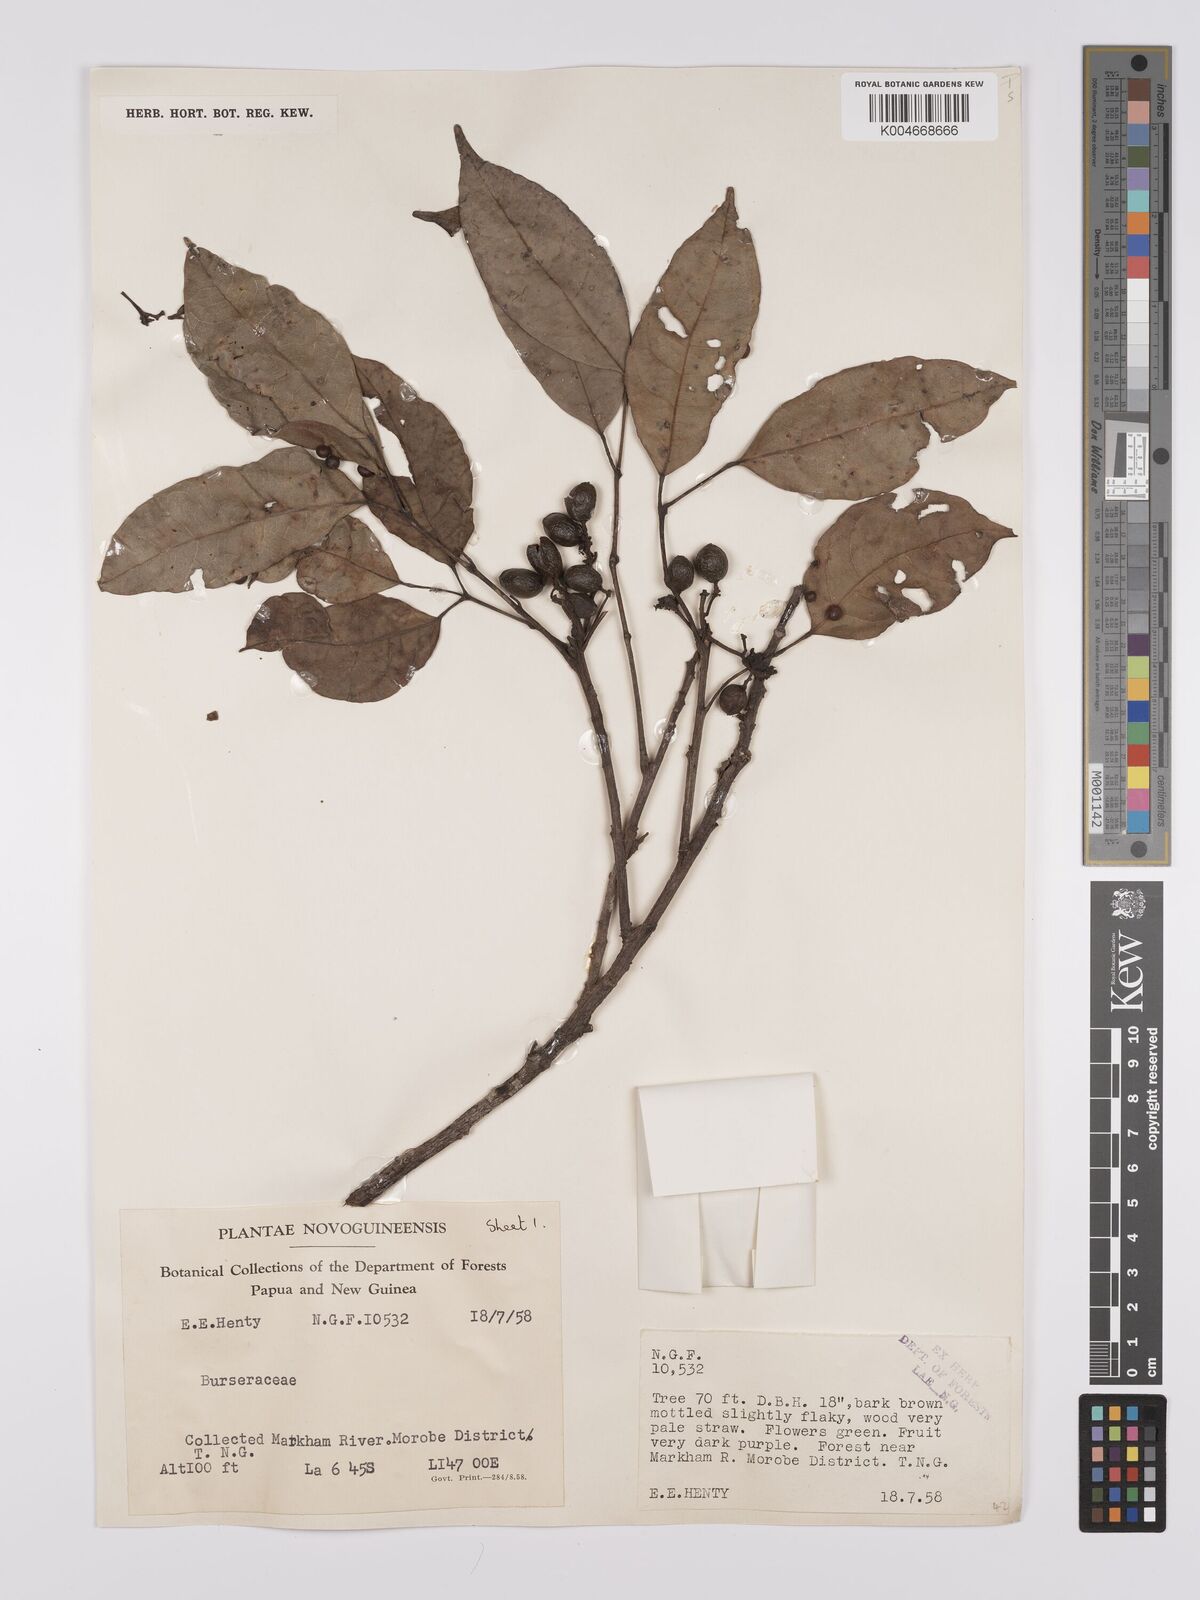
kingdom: Plantae
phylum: Tracheophyta
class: Magnoliopsida
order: Sapindales
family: Burseraceae
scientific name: Burseraceae
